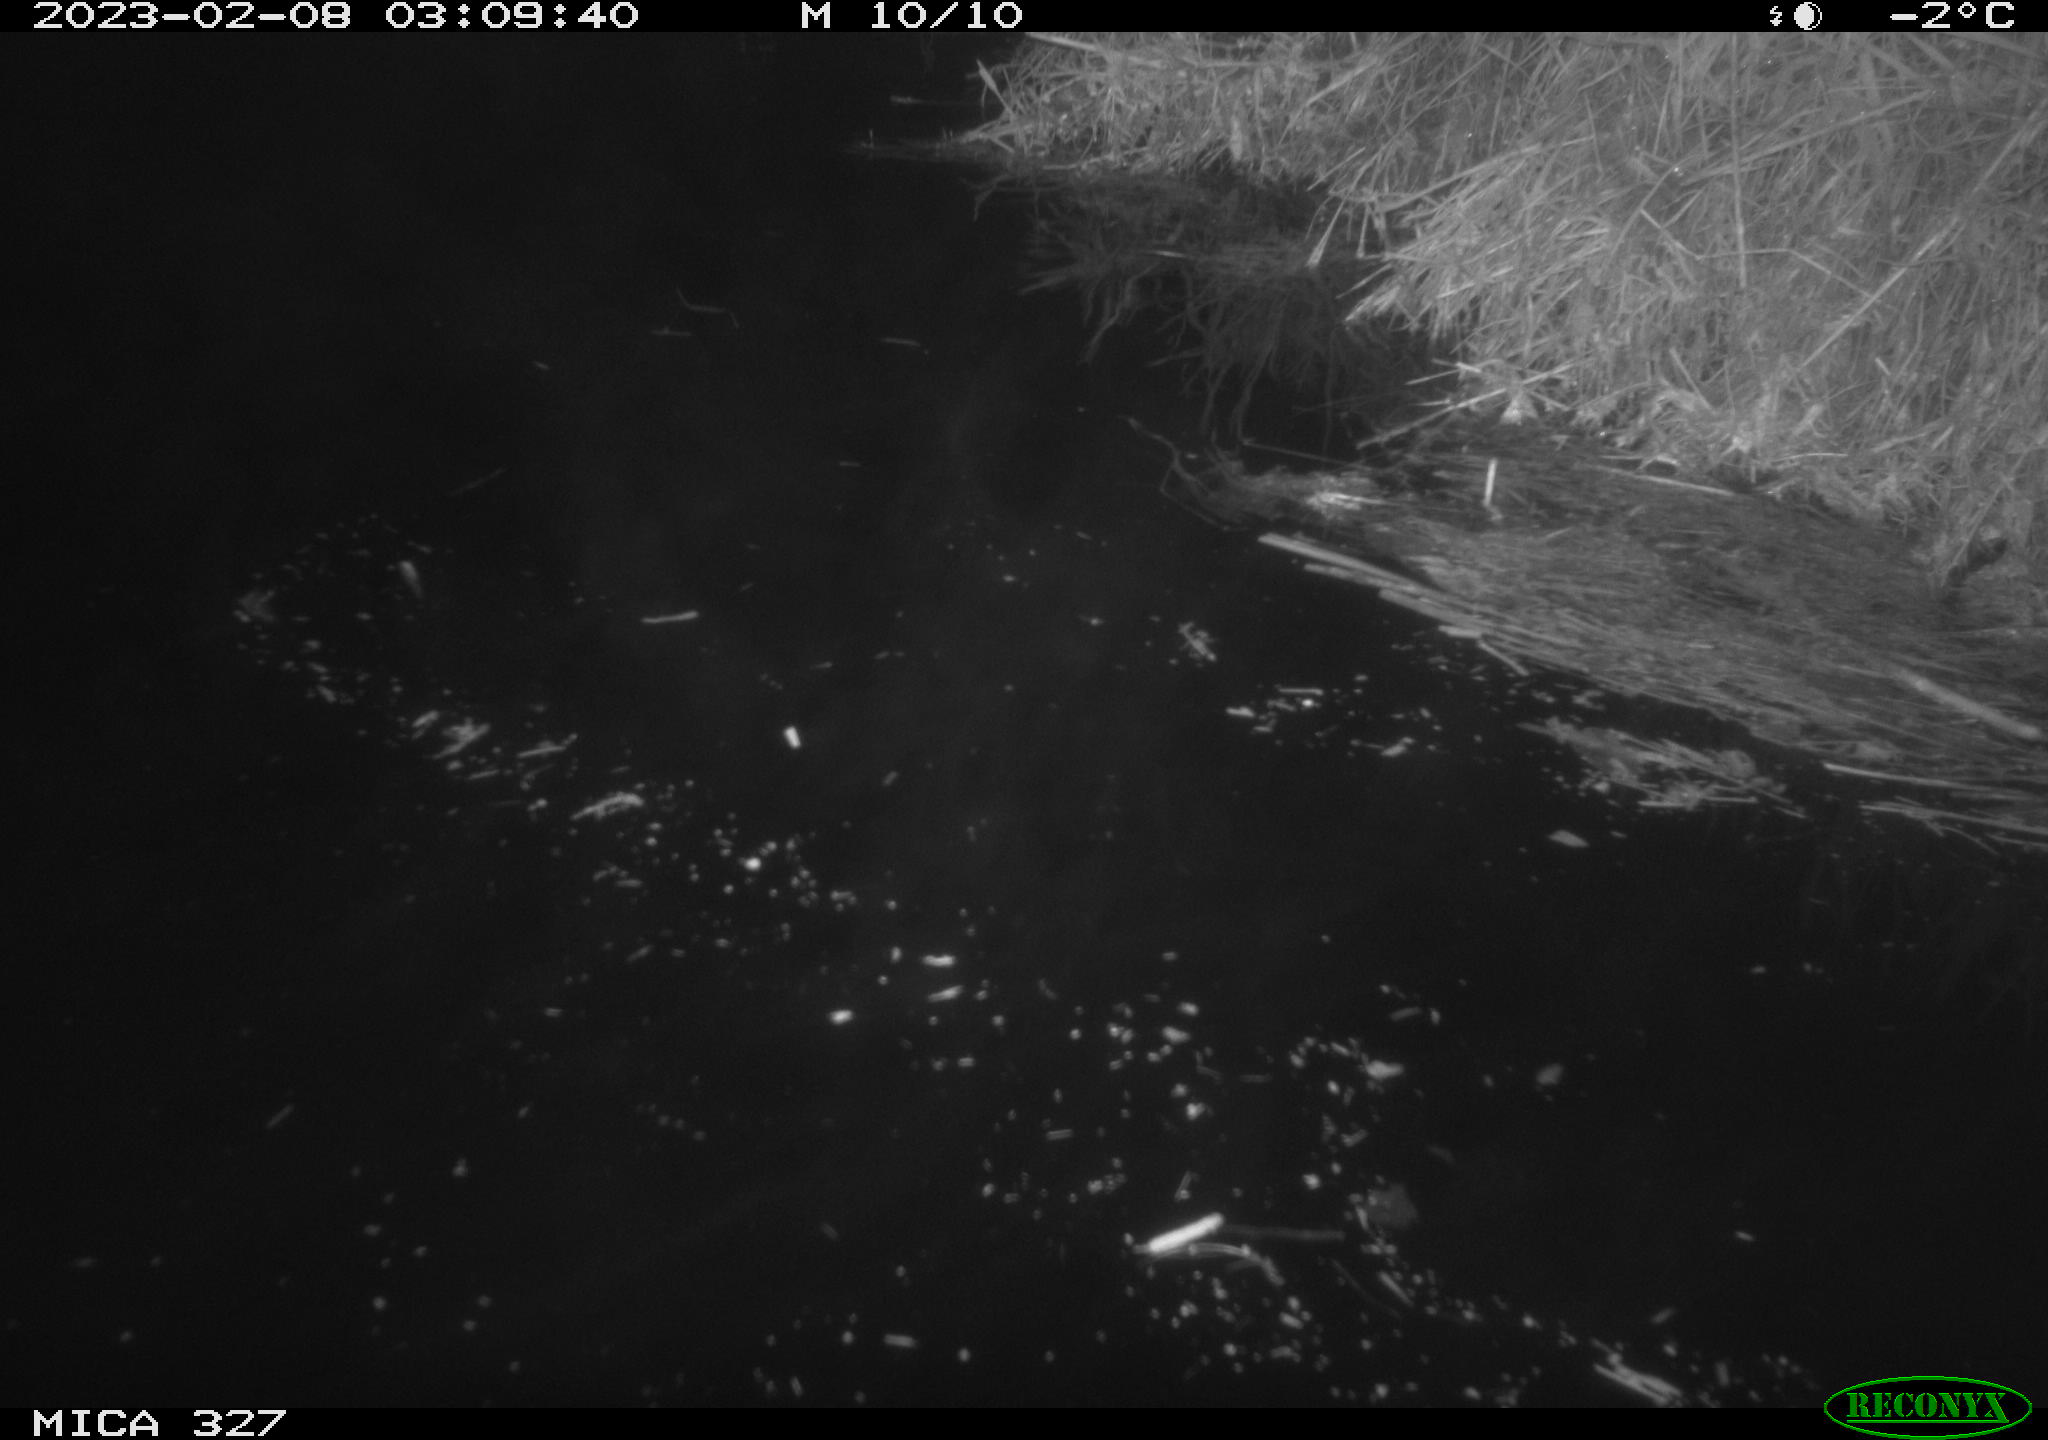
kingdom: Animalia
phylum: Chordata
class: Mammalia
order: Rodentia
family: Cricetidae
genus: Ondatra
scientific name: Ondatra zibethicus
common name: Muskrat
